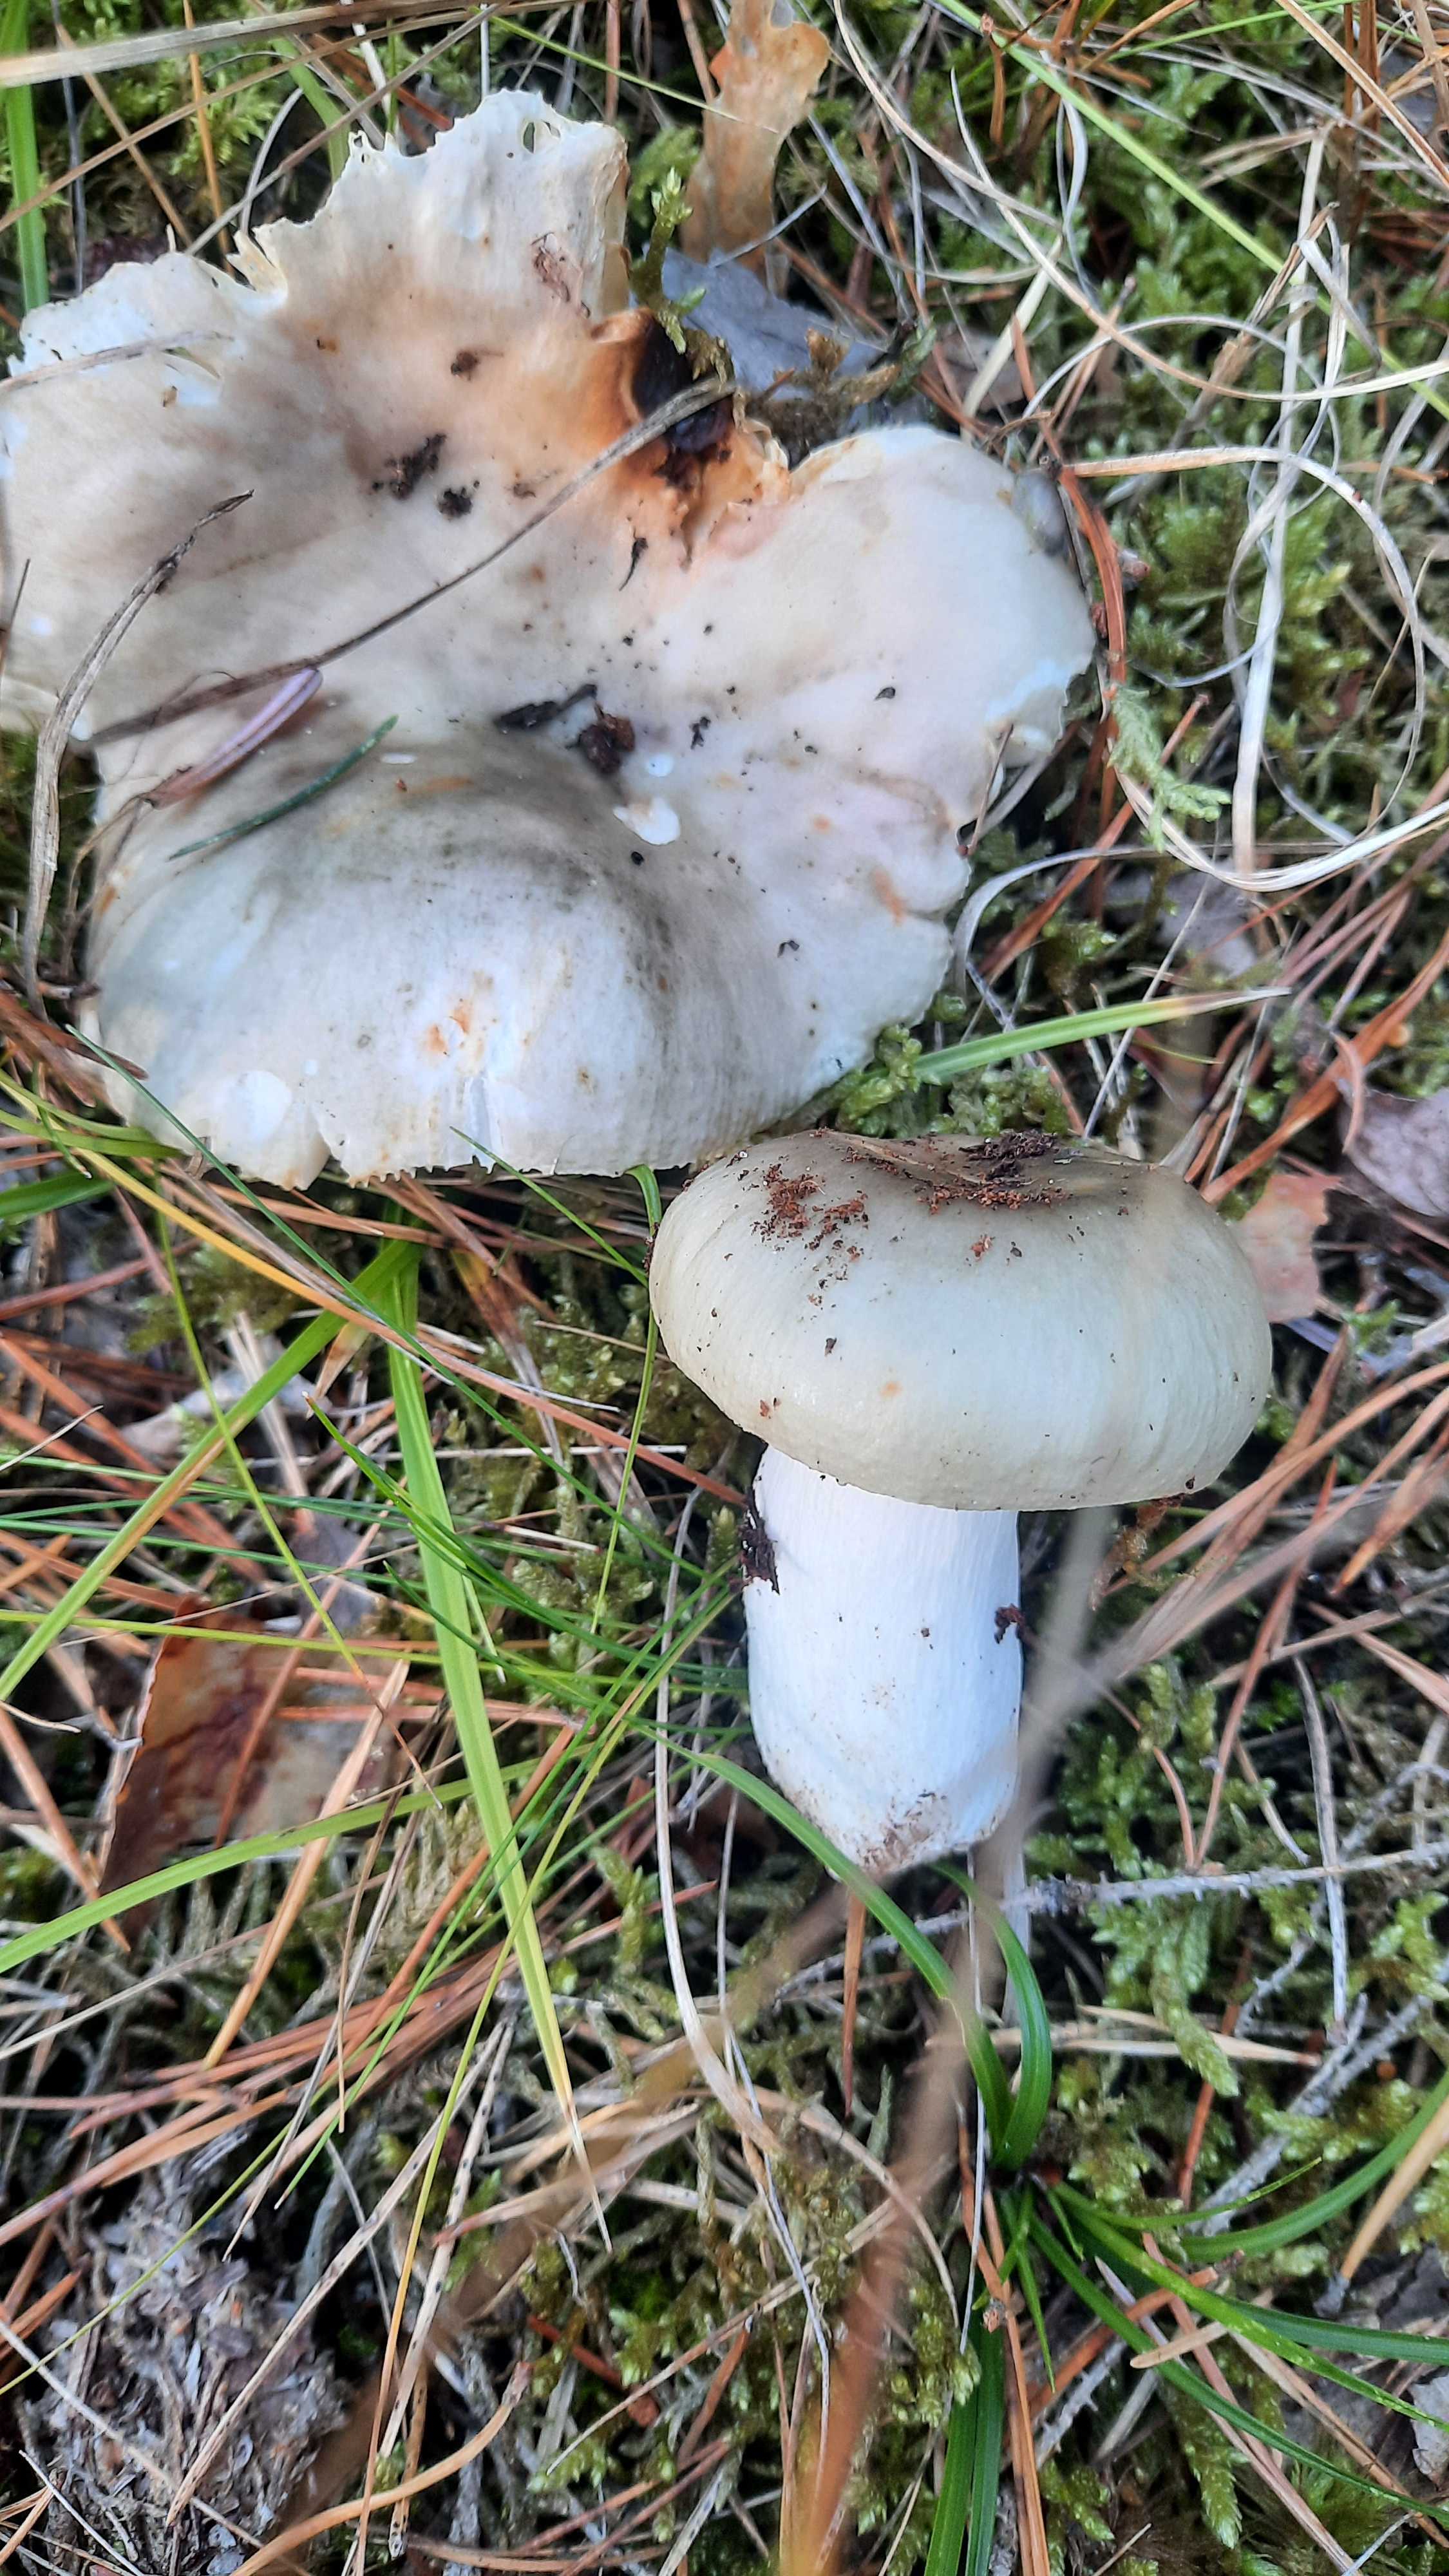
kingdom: Fungi
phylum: Basidiomycota
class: Agaricomycetes
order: Russulales
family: Russulaceae
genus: Russula
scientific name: Russula aeruginea
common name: græsgrøn skørhat
